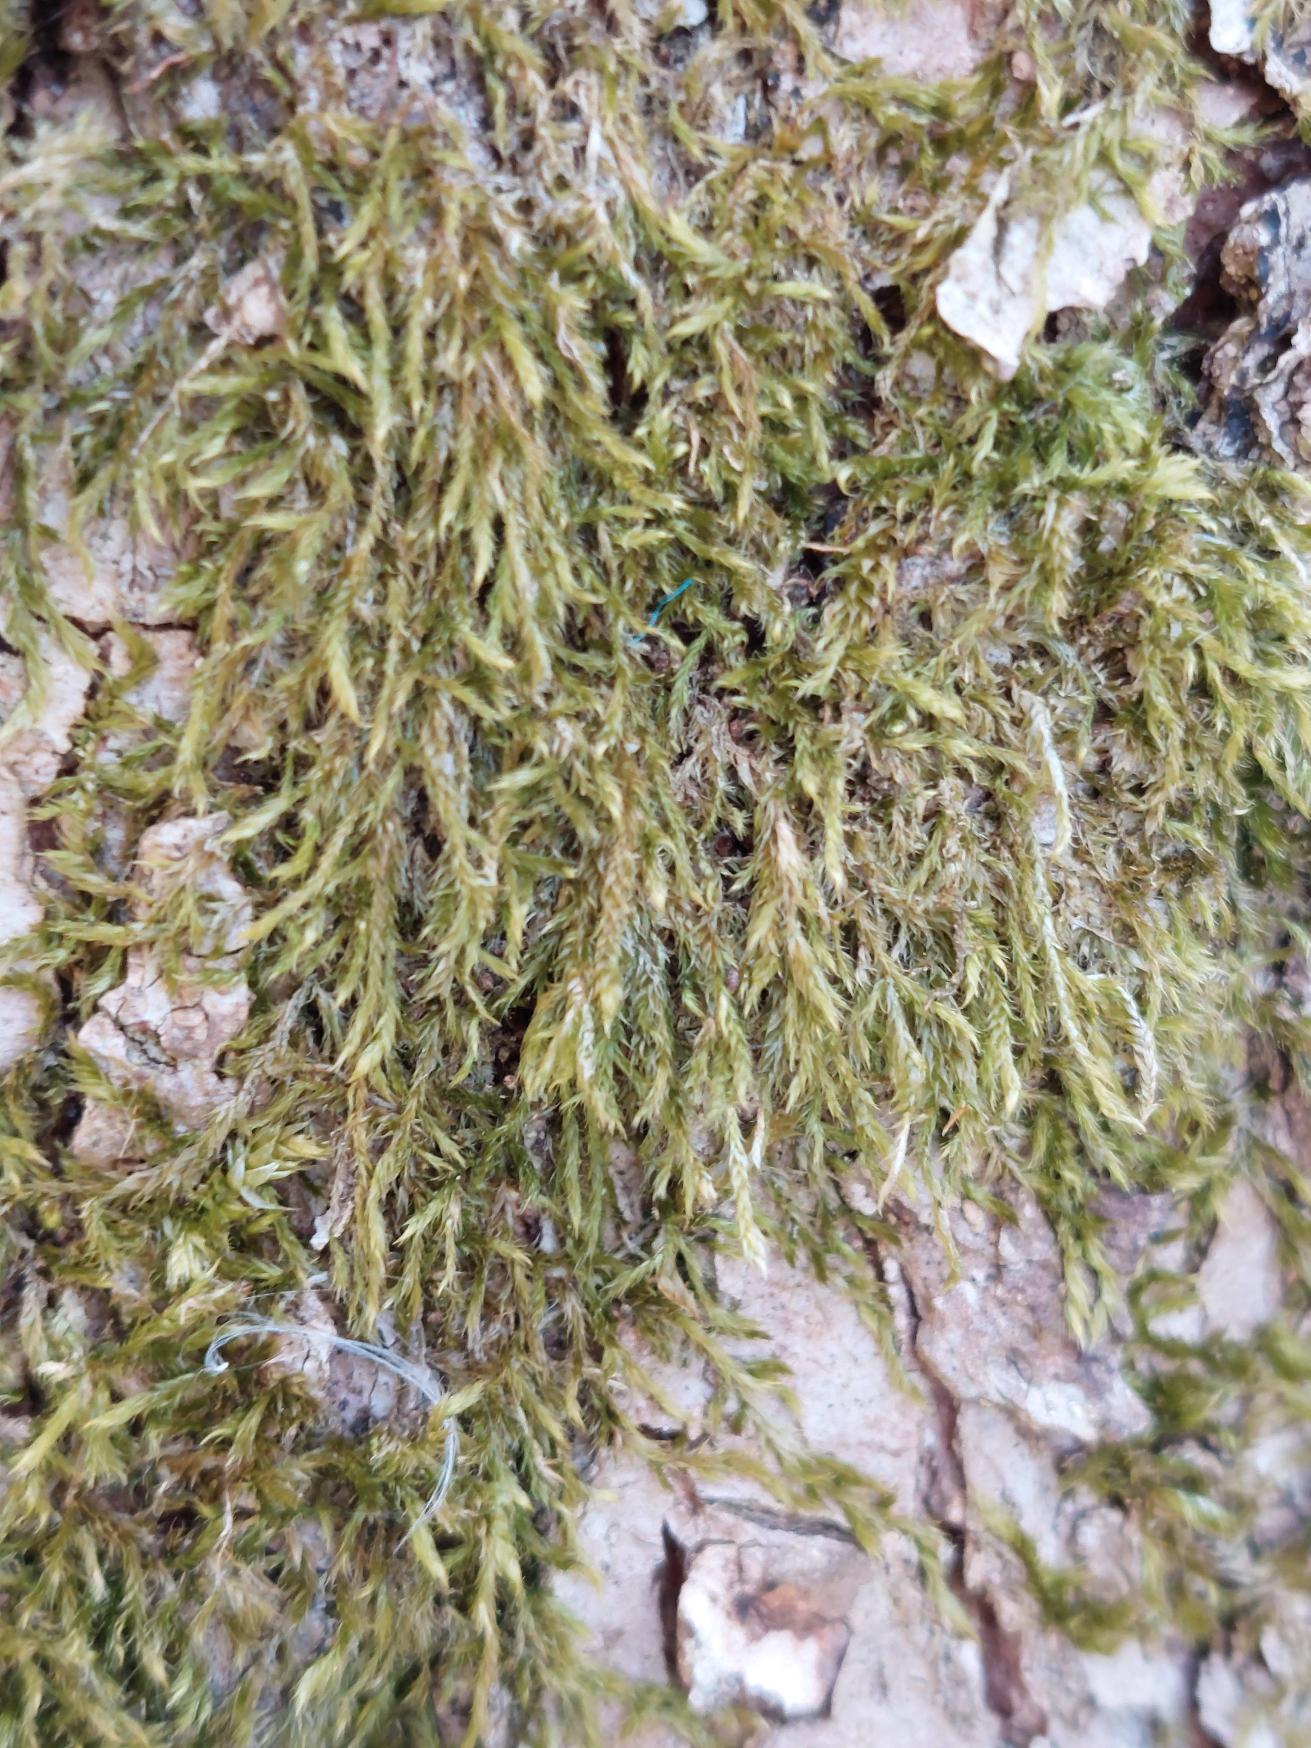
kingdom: Plantae
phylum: Bryophyta
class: Bryopsida
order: Hypnales
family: Hypnaceae
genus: Hypnum
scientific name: Hypnum
